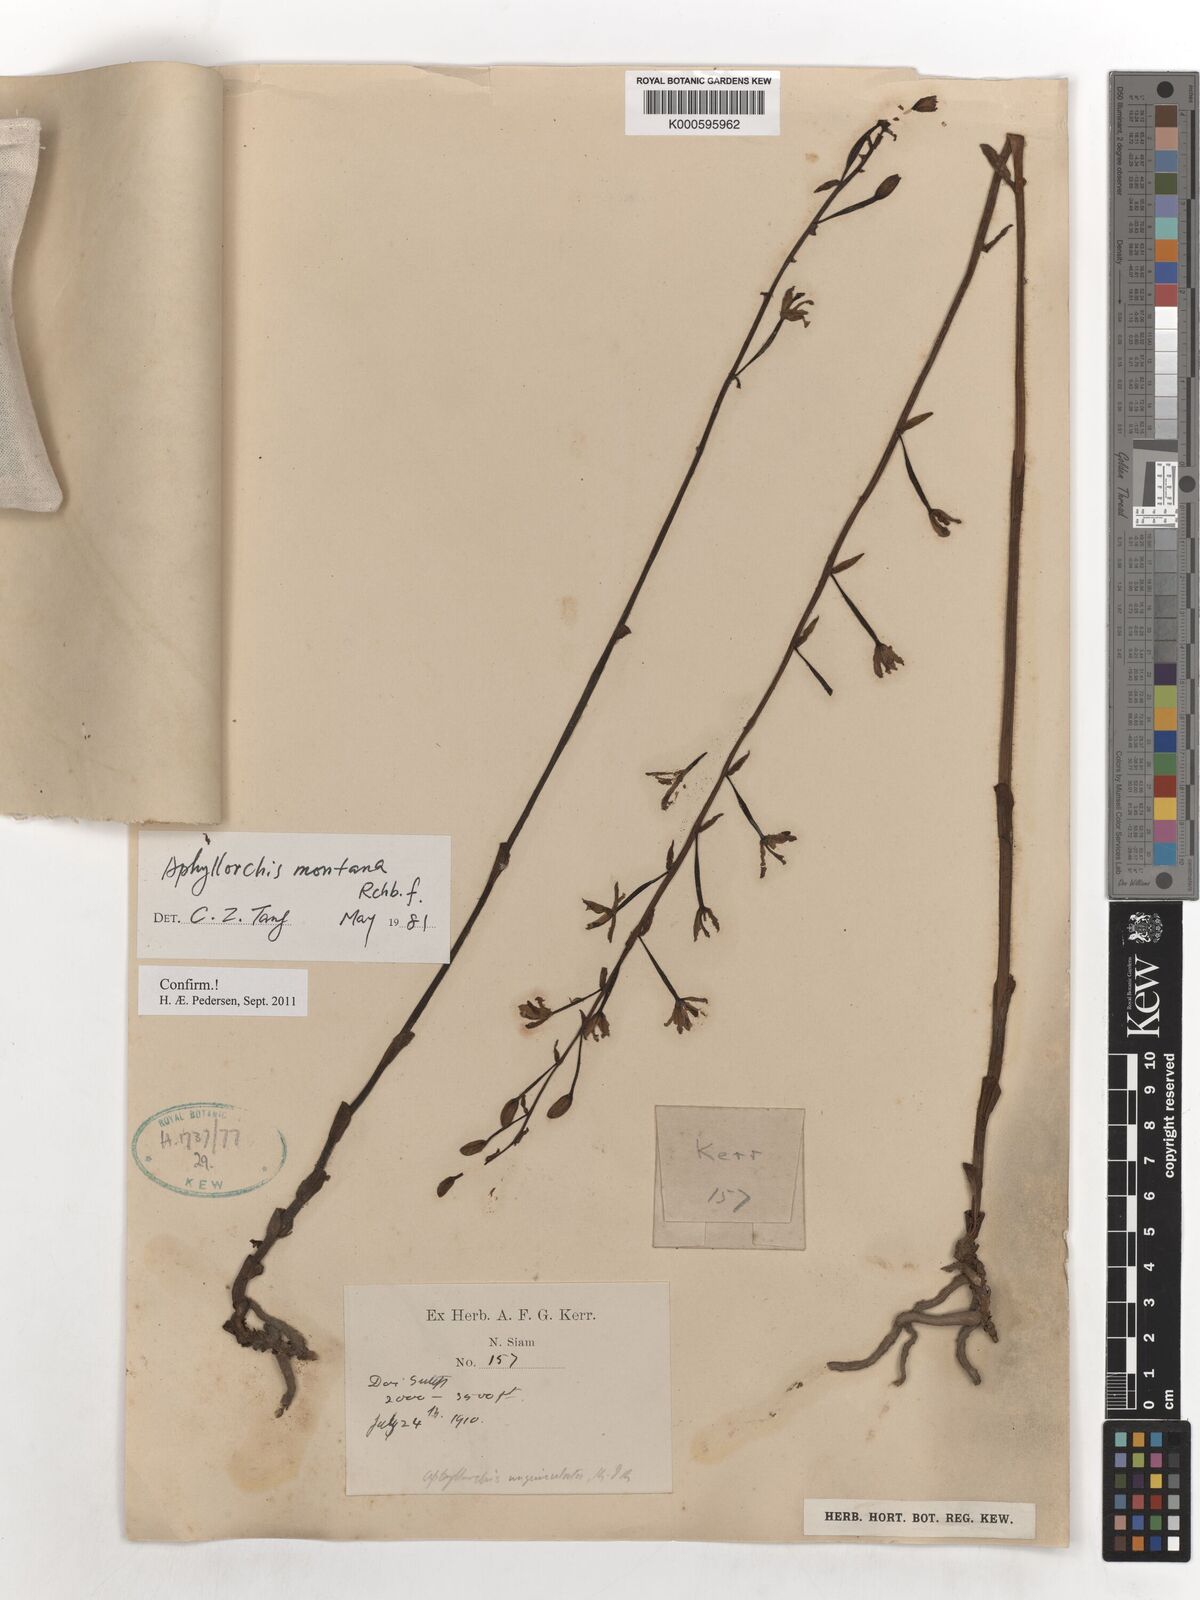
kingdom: Plantae
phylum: Tracheophyta
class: Liliopsida
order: Asparagales
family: Orchidaceae
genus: Aphyllorchis
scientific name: Aphyllorchis montana
